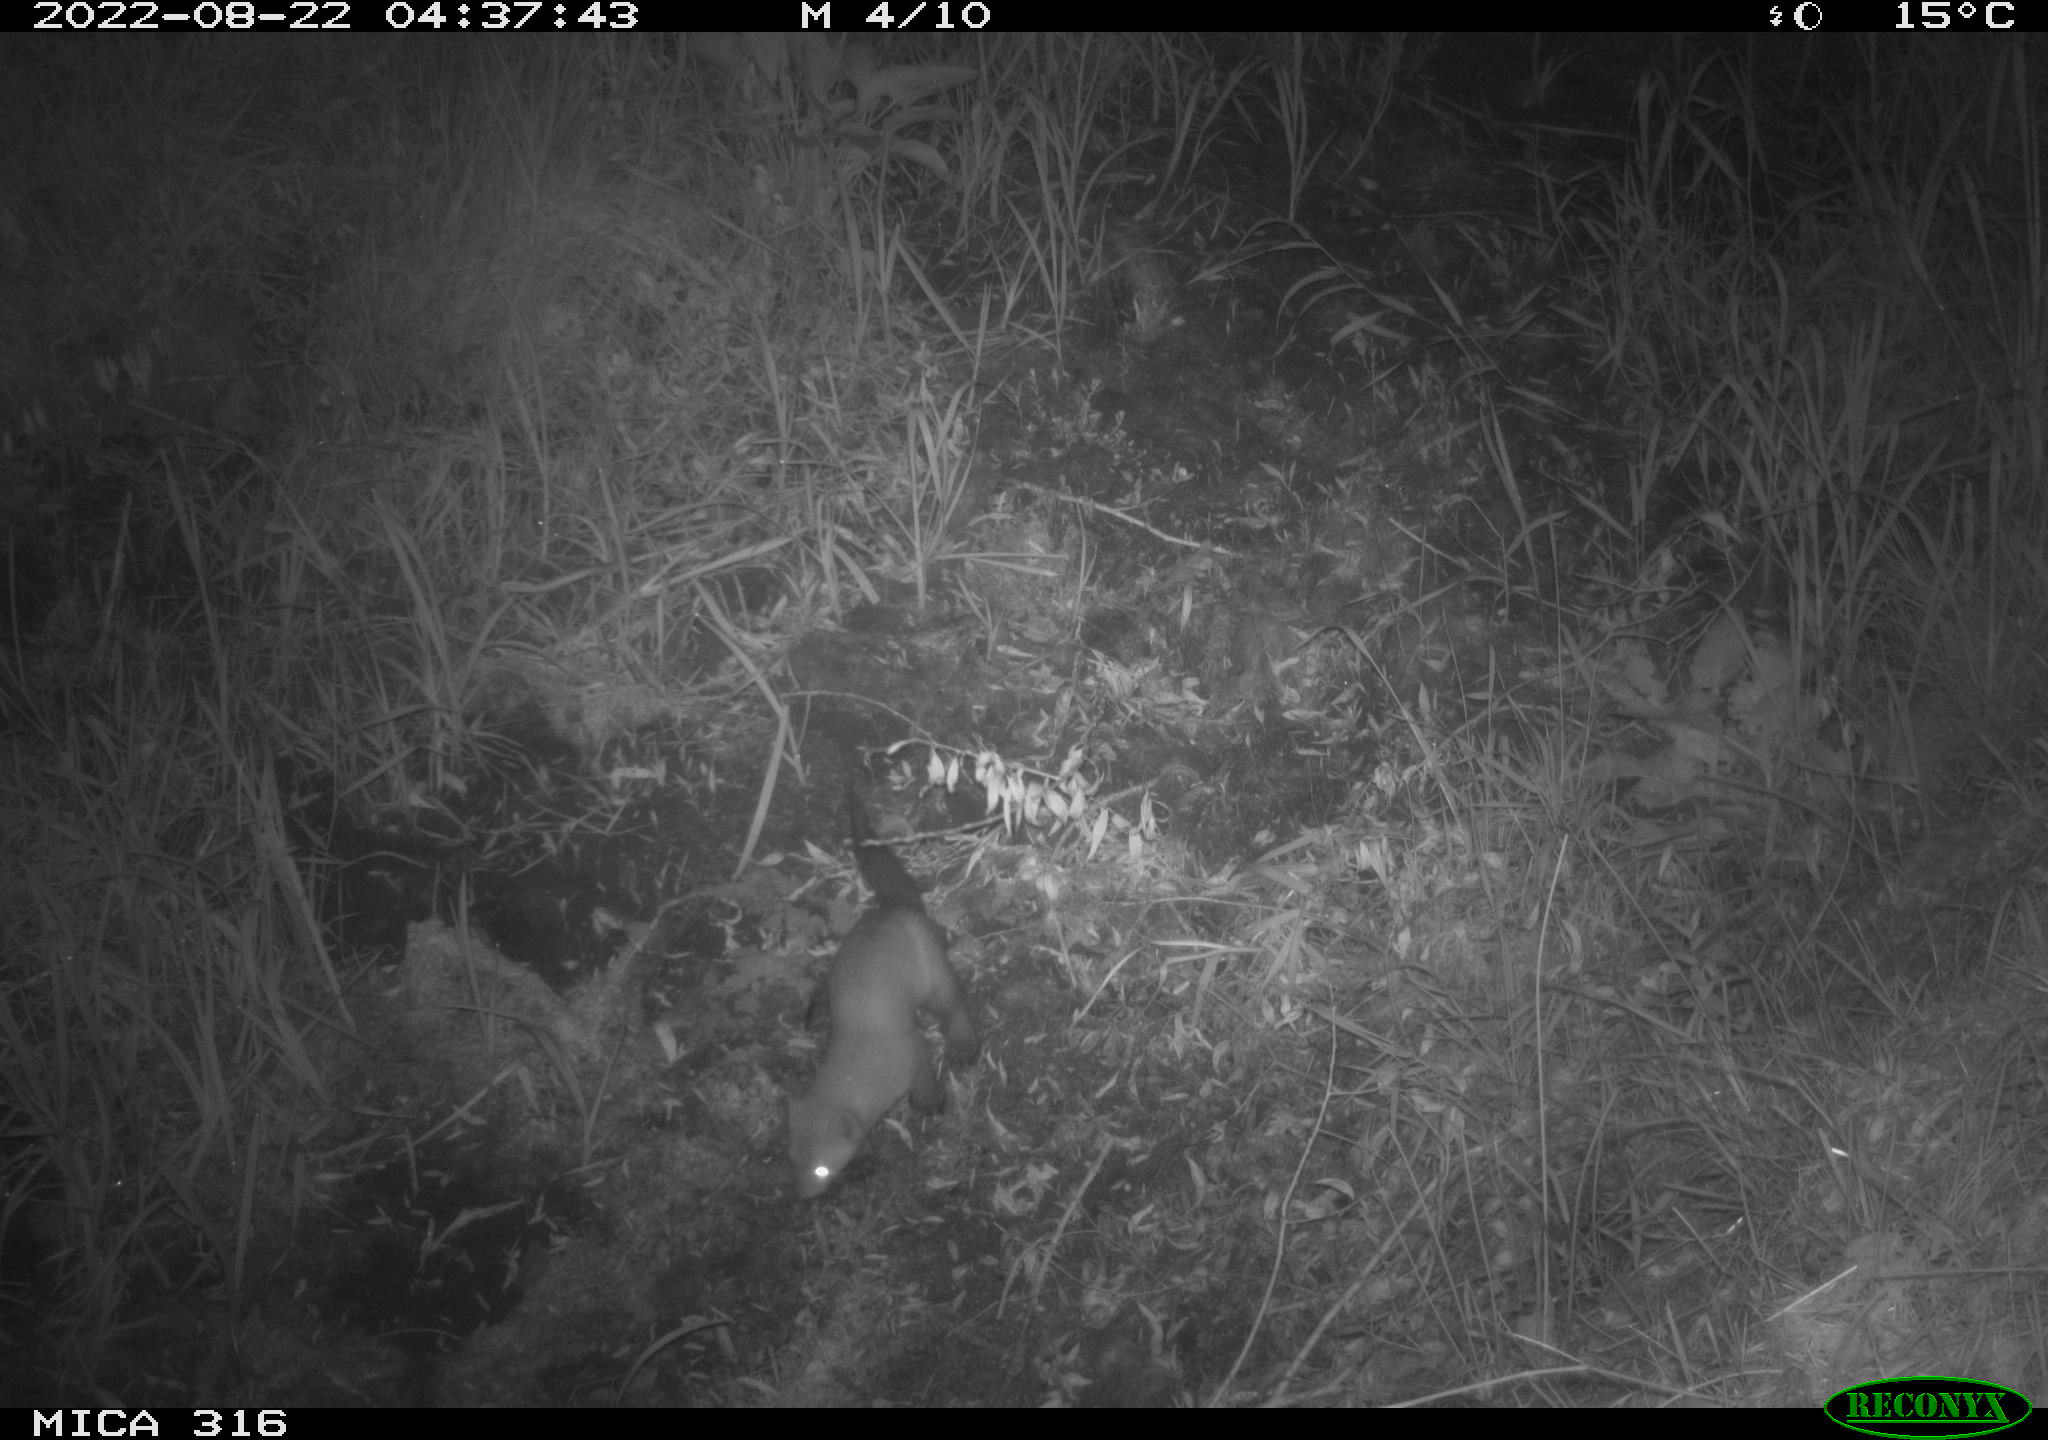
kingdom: Animalia
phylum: Chordata
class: Mammalia
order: Carnivora
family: Mustelidae
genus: Martes
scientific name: Martes martes
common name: European pine marten
